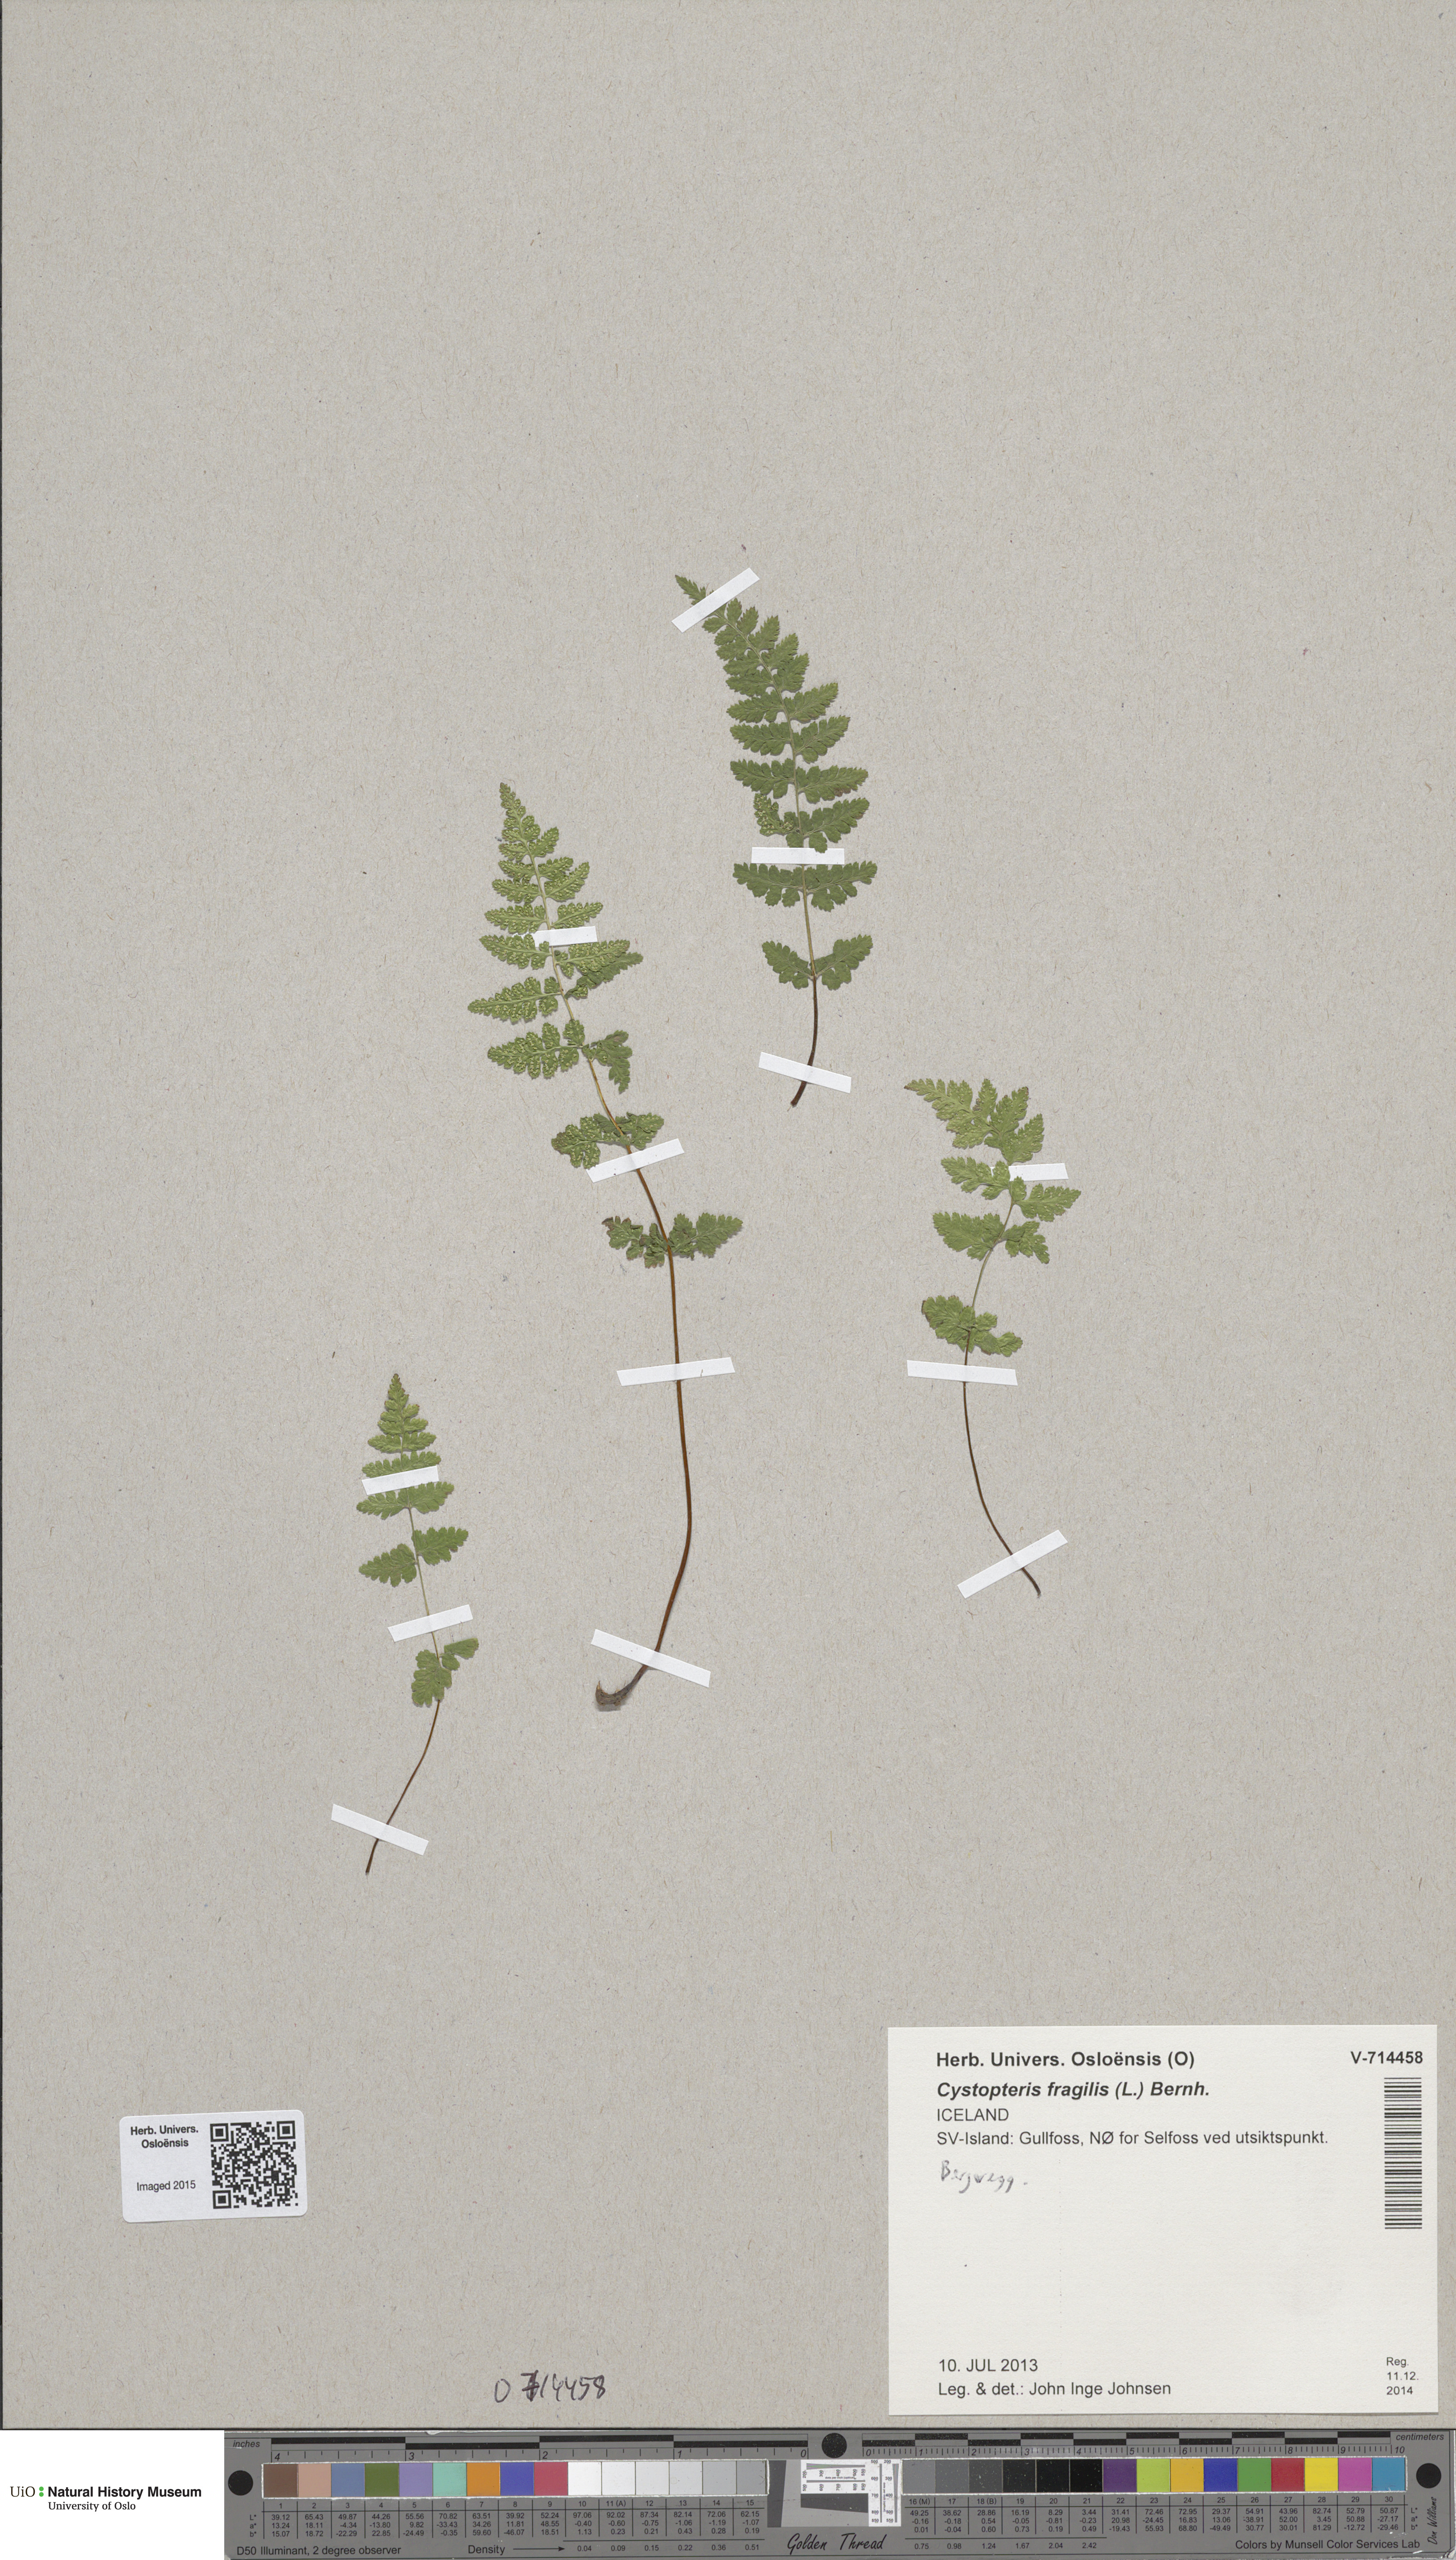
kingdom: Plantae
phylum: Tracheophyta
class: Polypodiopsida
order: Polypodiales
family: Cystopteridaceae
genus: Cystopteris
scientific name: Cystopteris fragilis
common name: Brittle bladder fern
